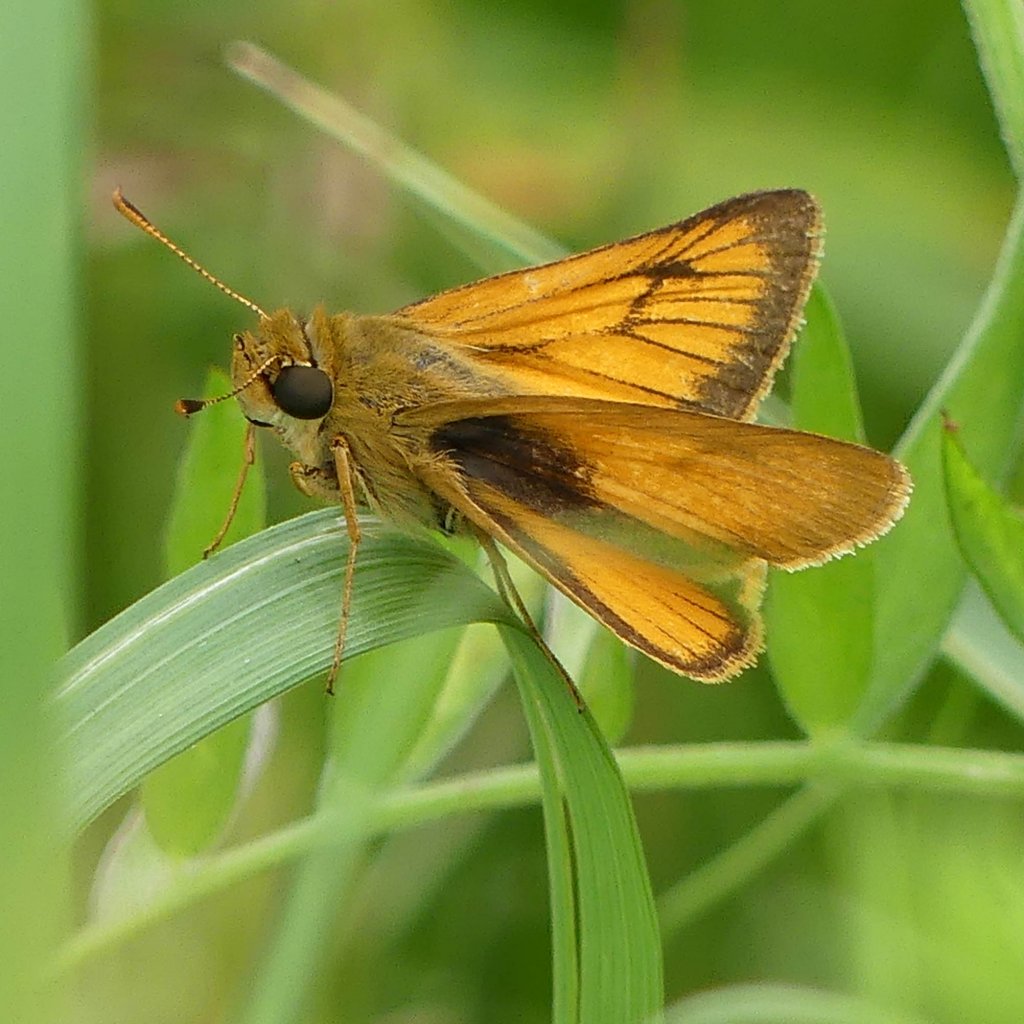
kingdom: Animalia
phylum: Arthropoda
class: Insecta
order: Lepidoptera
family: Hesperiidae
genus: Atrytone
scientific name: Atrytone delaware
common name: Delaware Skipper
